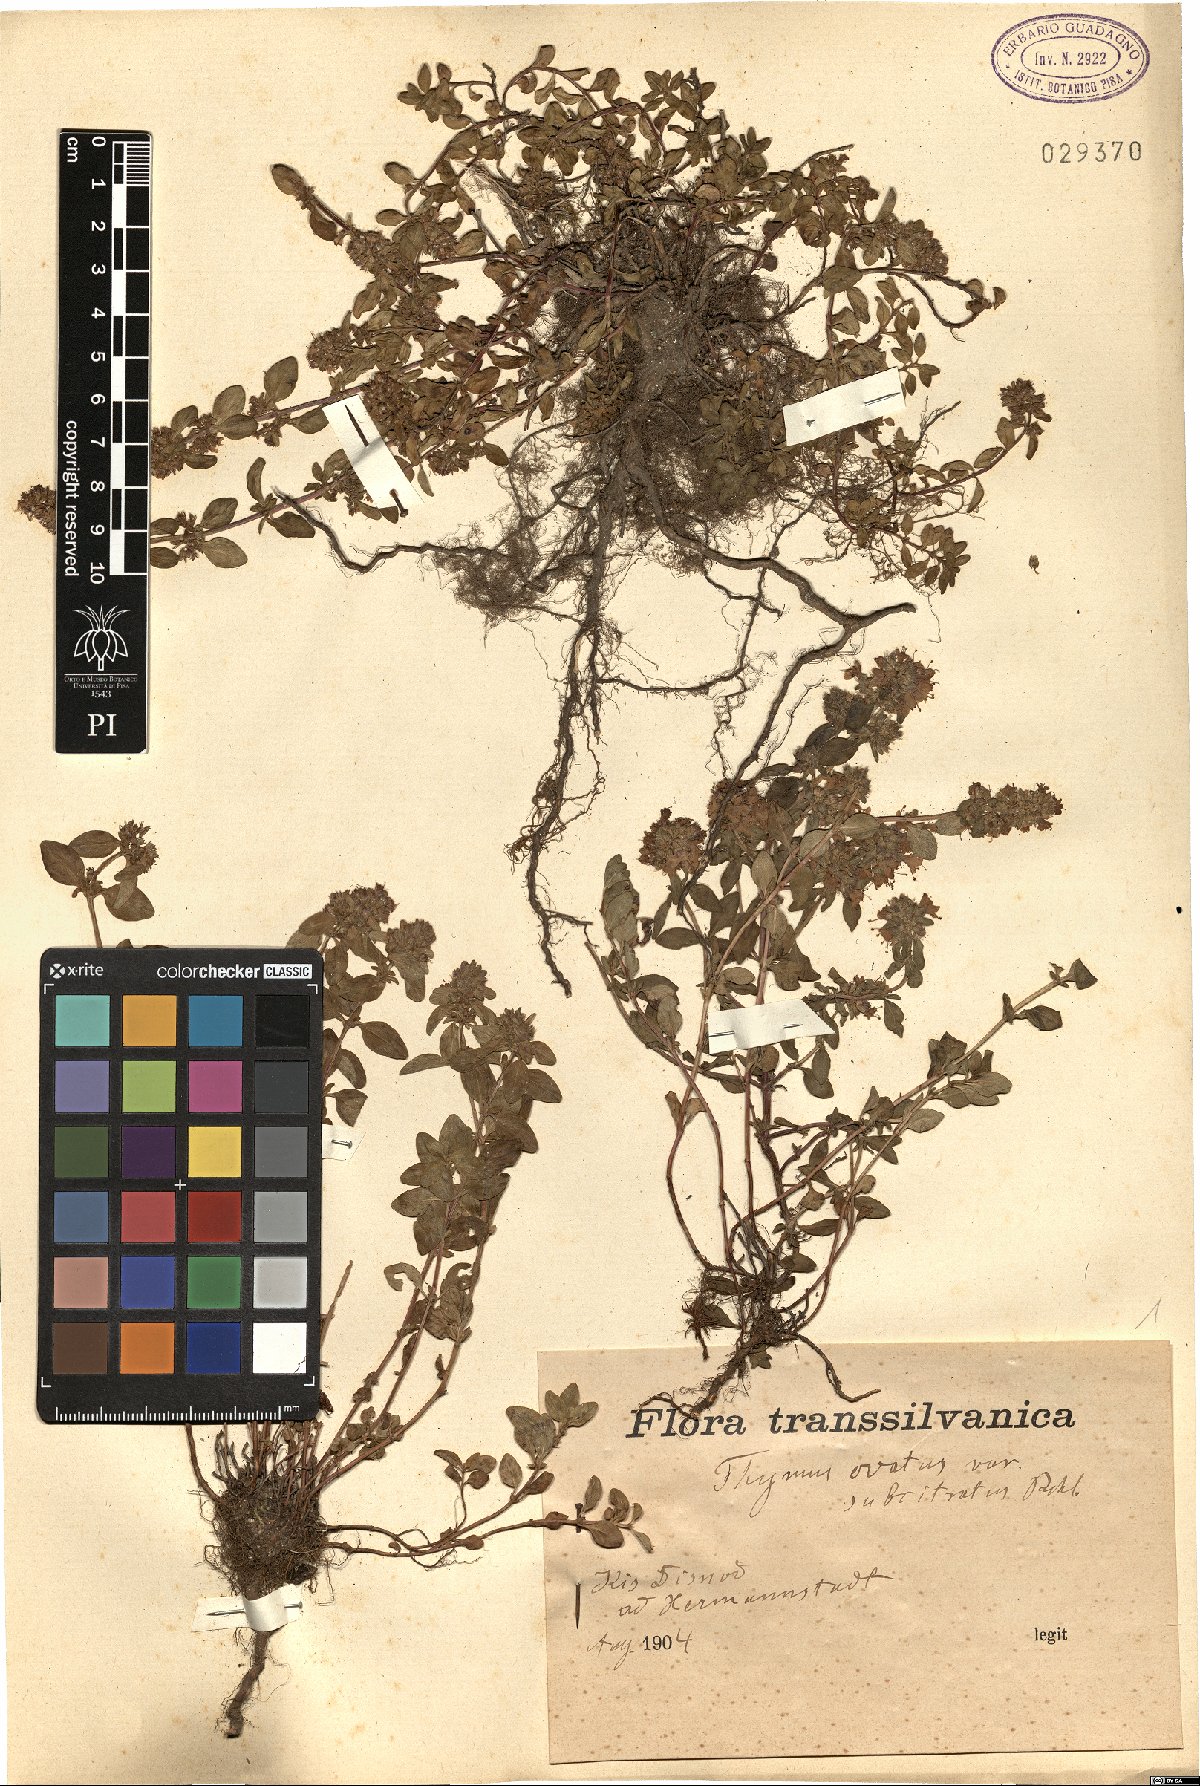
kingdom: Plantae
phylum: Tracheophyta
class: Magnoliopsida
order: Lamiales
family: Lamiaceae
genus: Thymus
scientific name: Thymus serpyllum
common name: Breckland thyme
